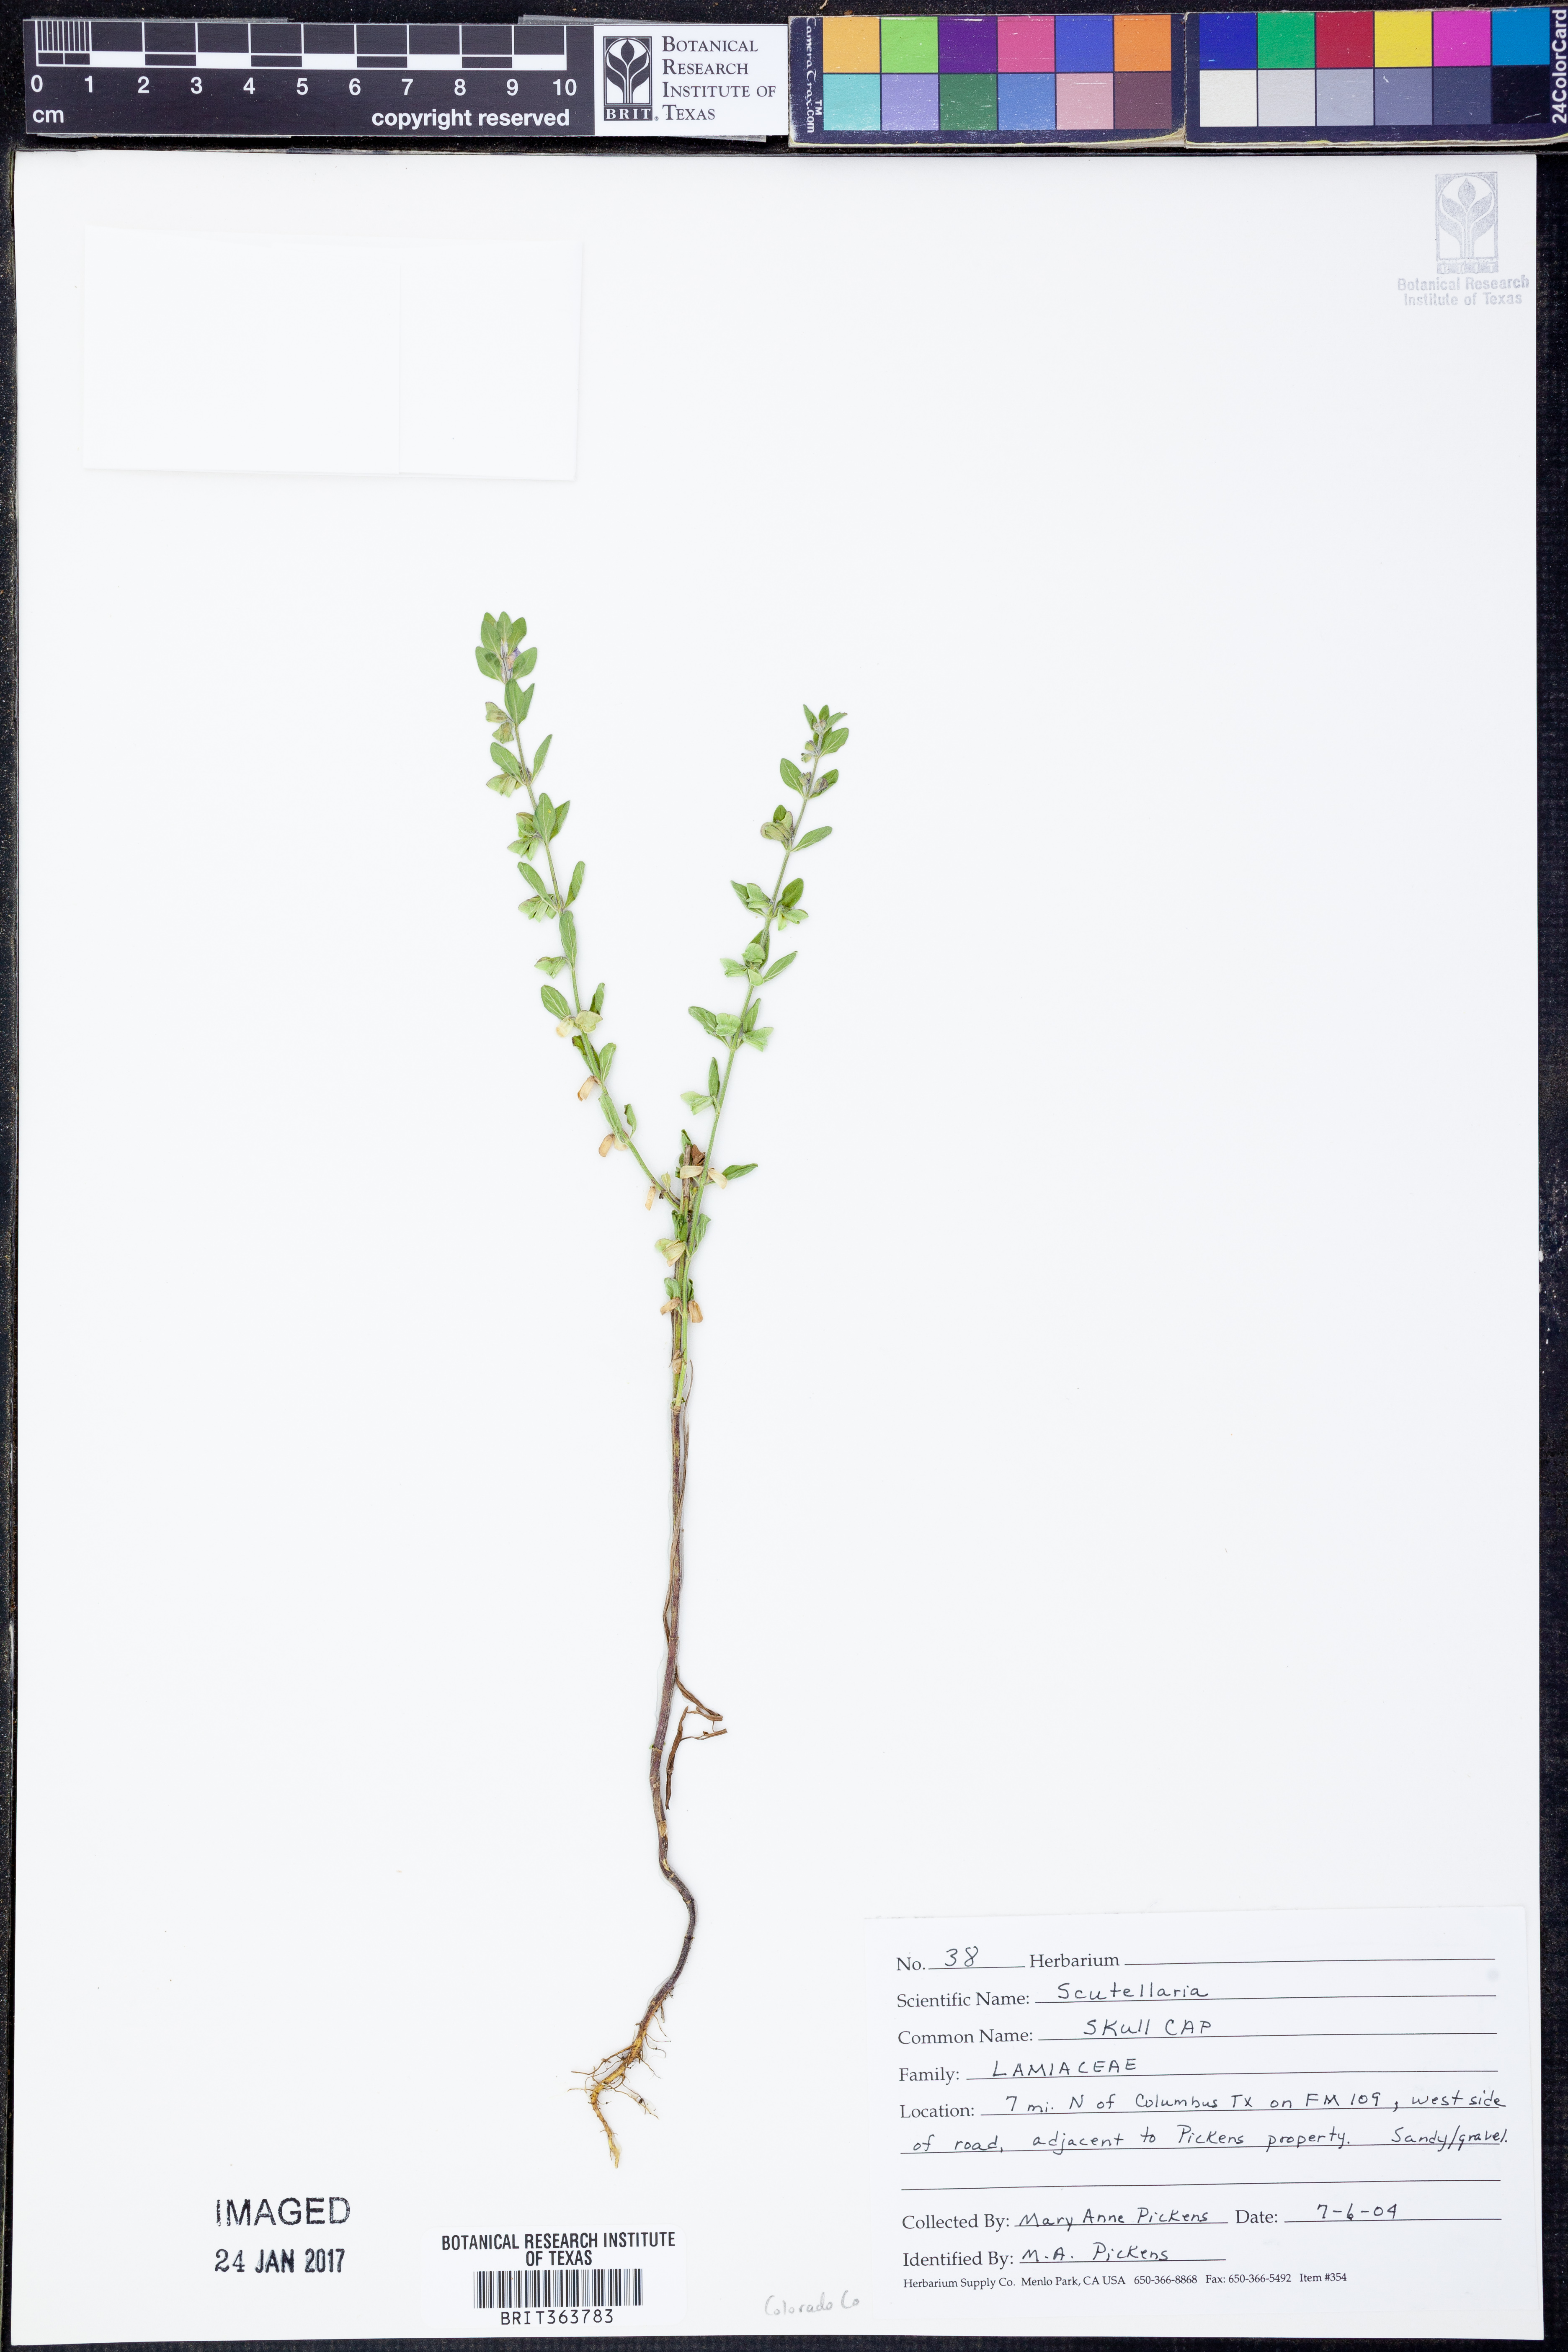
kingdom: Plantae
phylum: Tracheophyta
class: Magnoliopsida
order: Lamiales
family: Lamiaceae
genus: Scutellaria
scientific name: Scutellaria
